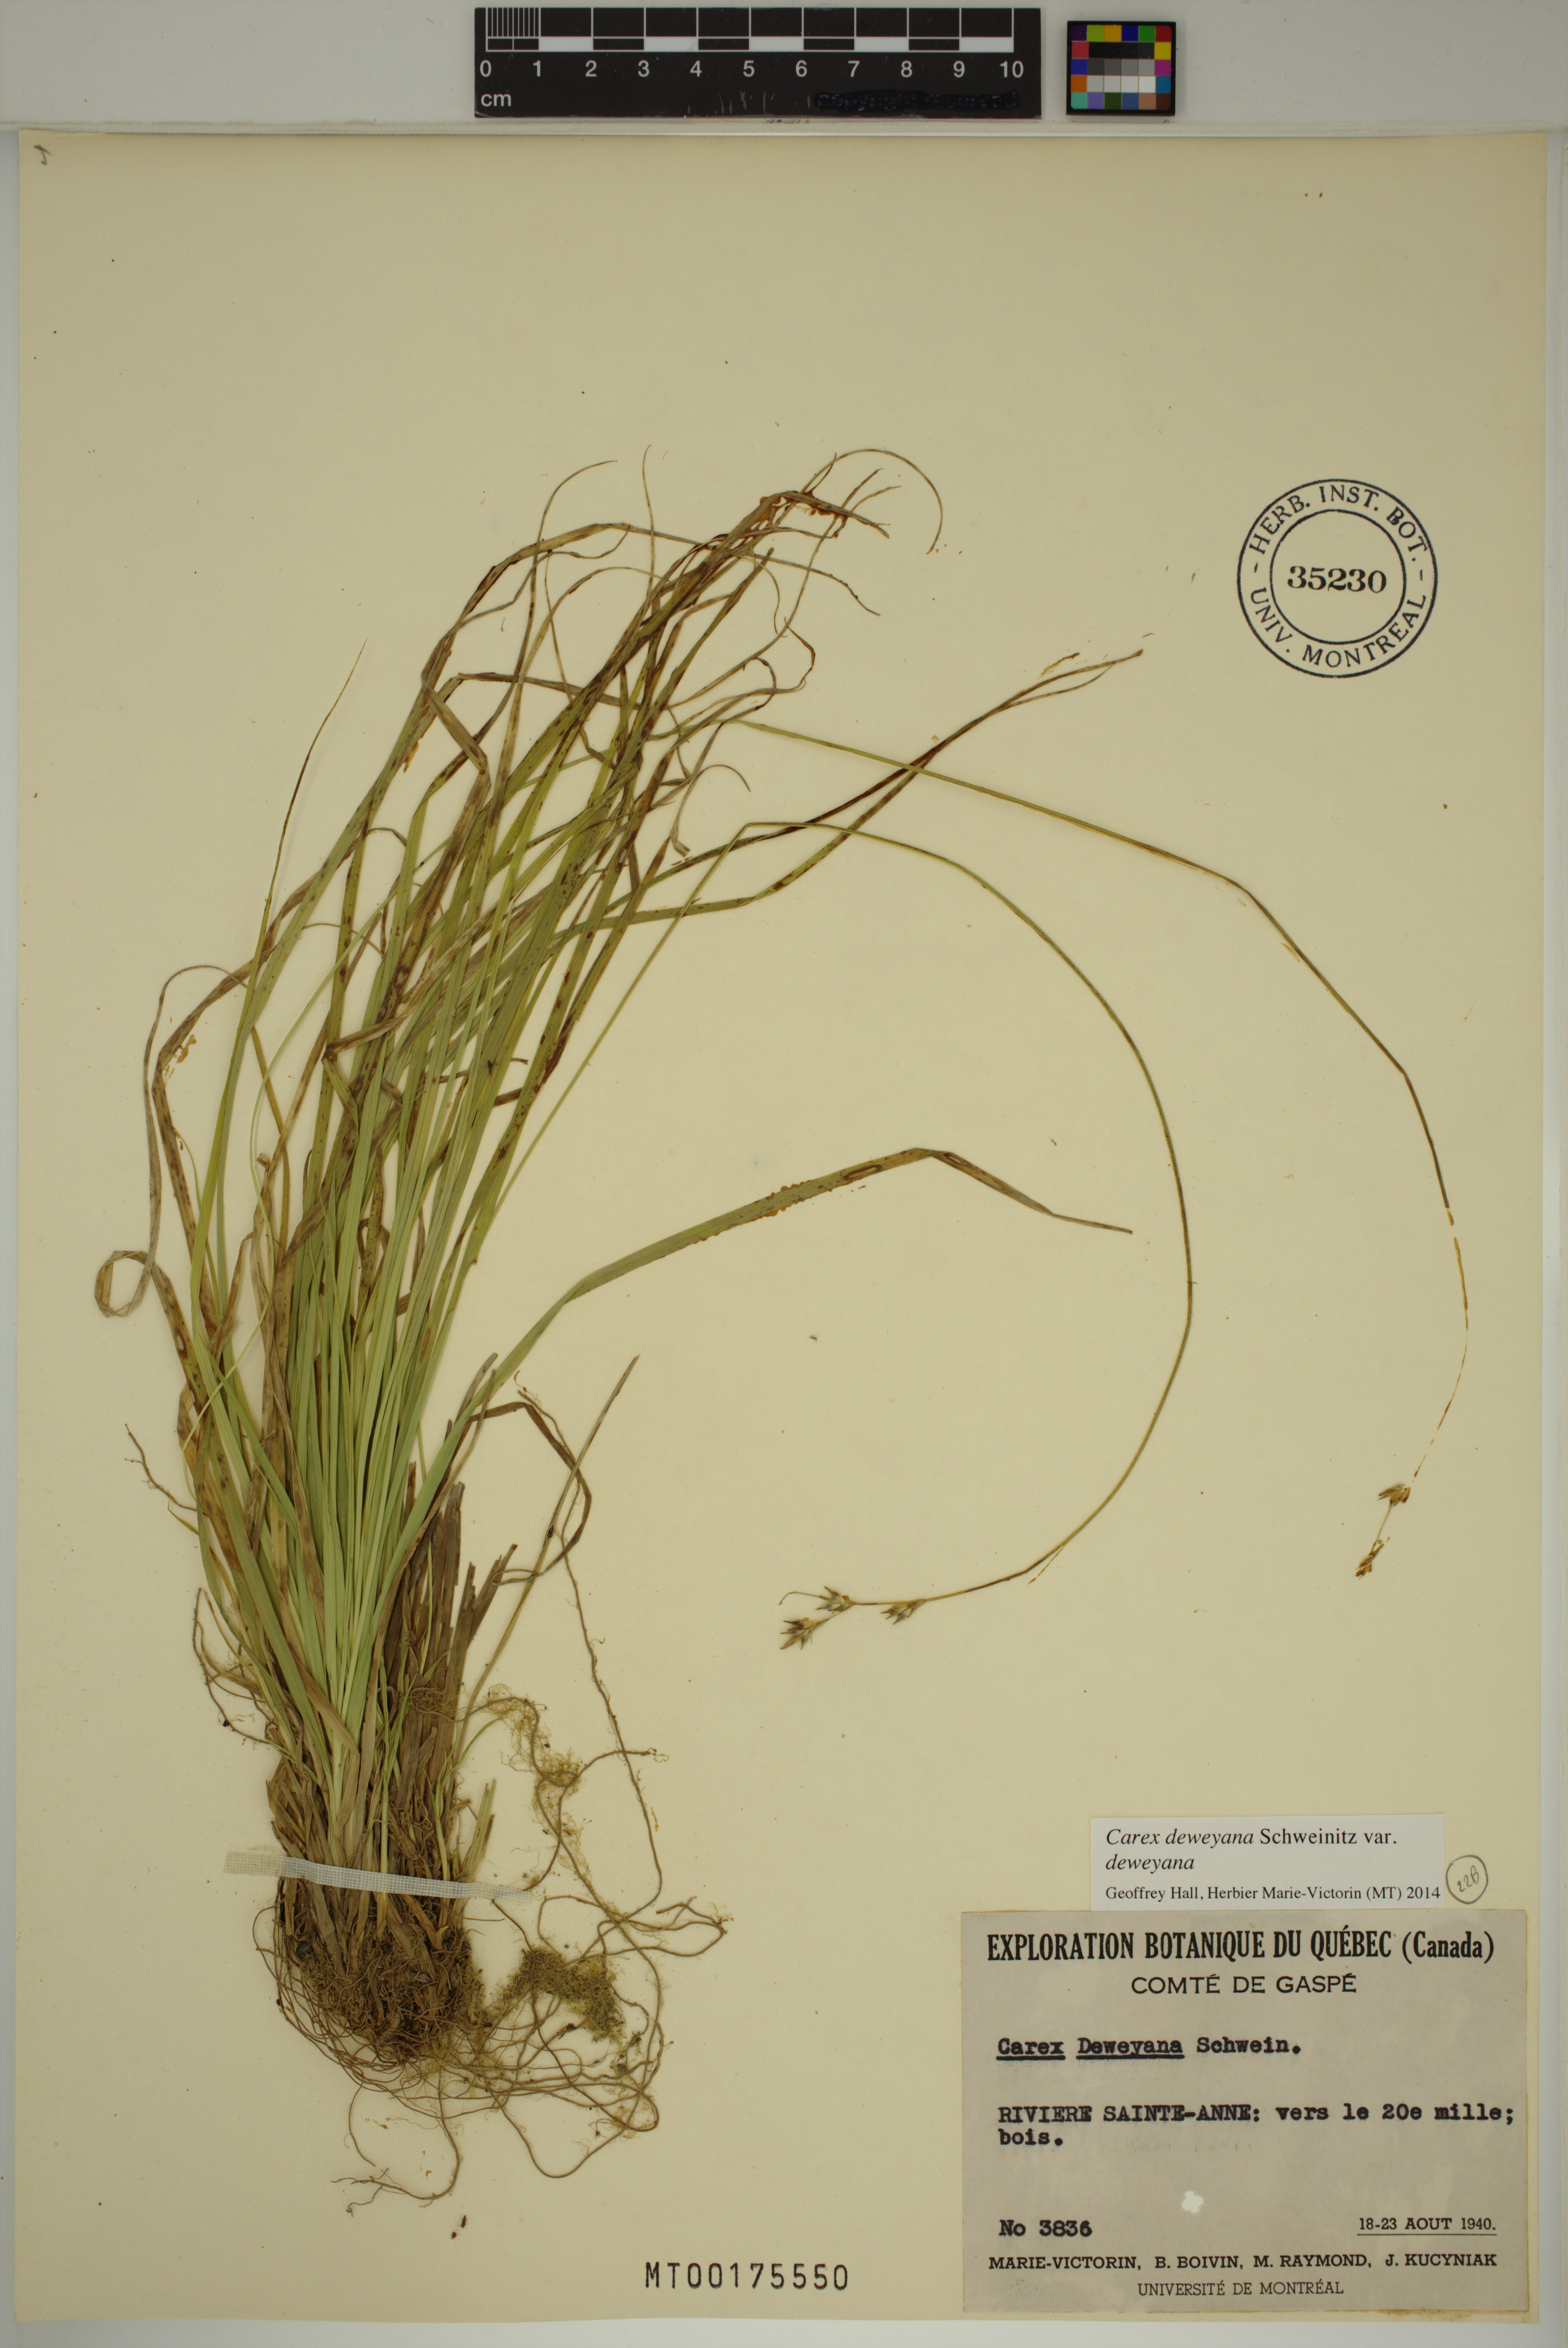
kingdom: Plantae
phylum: Tracheophyta
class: Liliopsida
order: Poales
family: Cyperaceae
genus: Carex
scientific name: Carex deweyana
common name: Dewey's sedge
